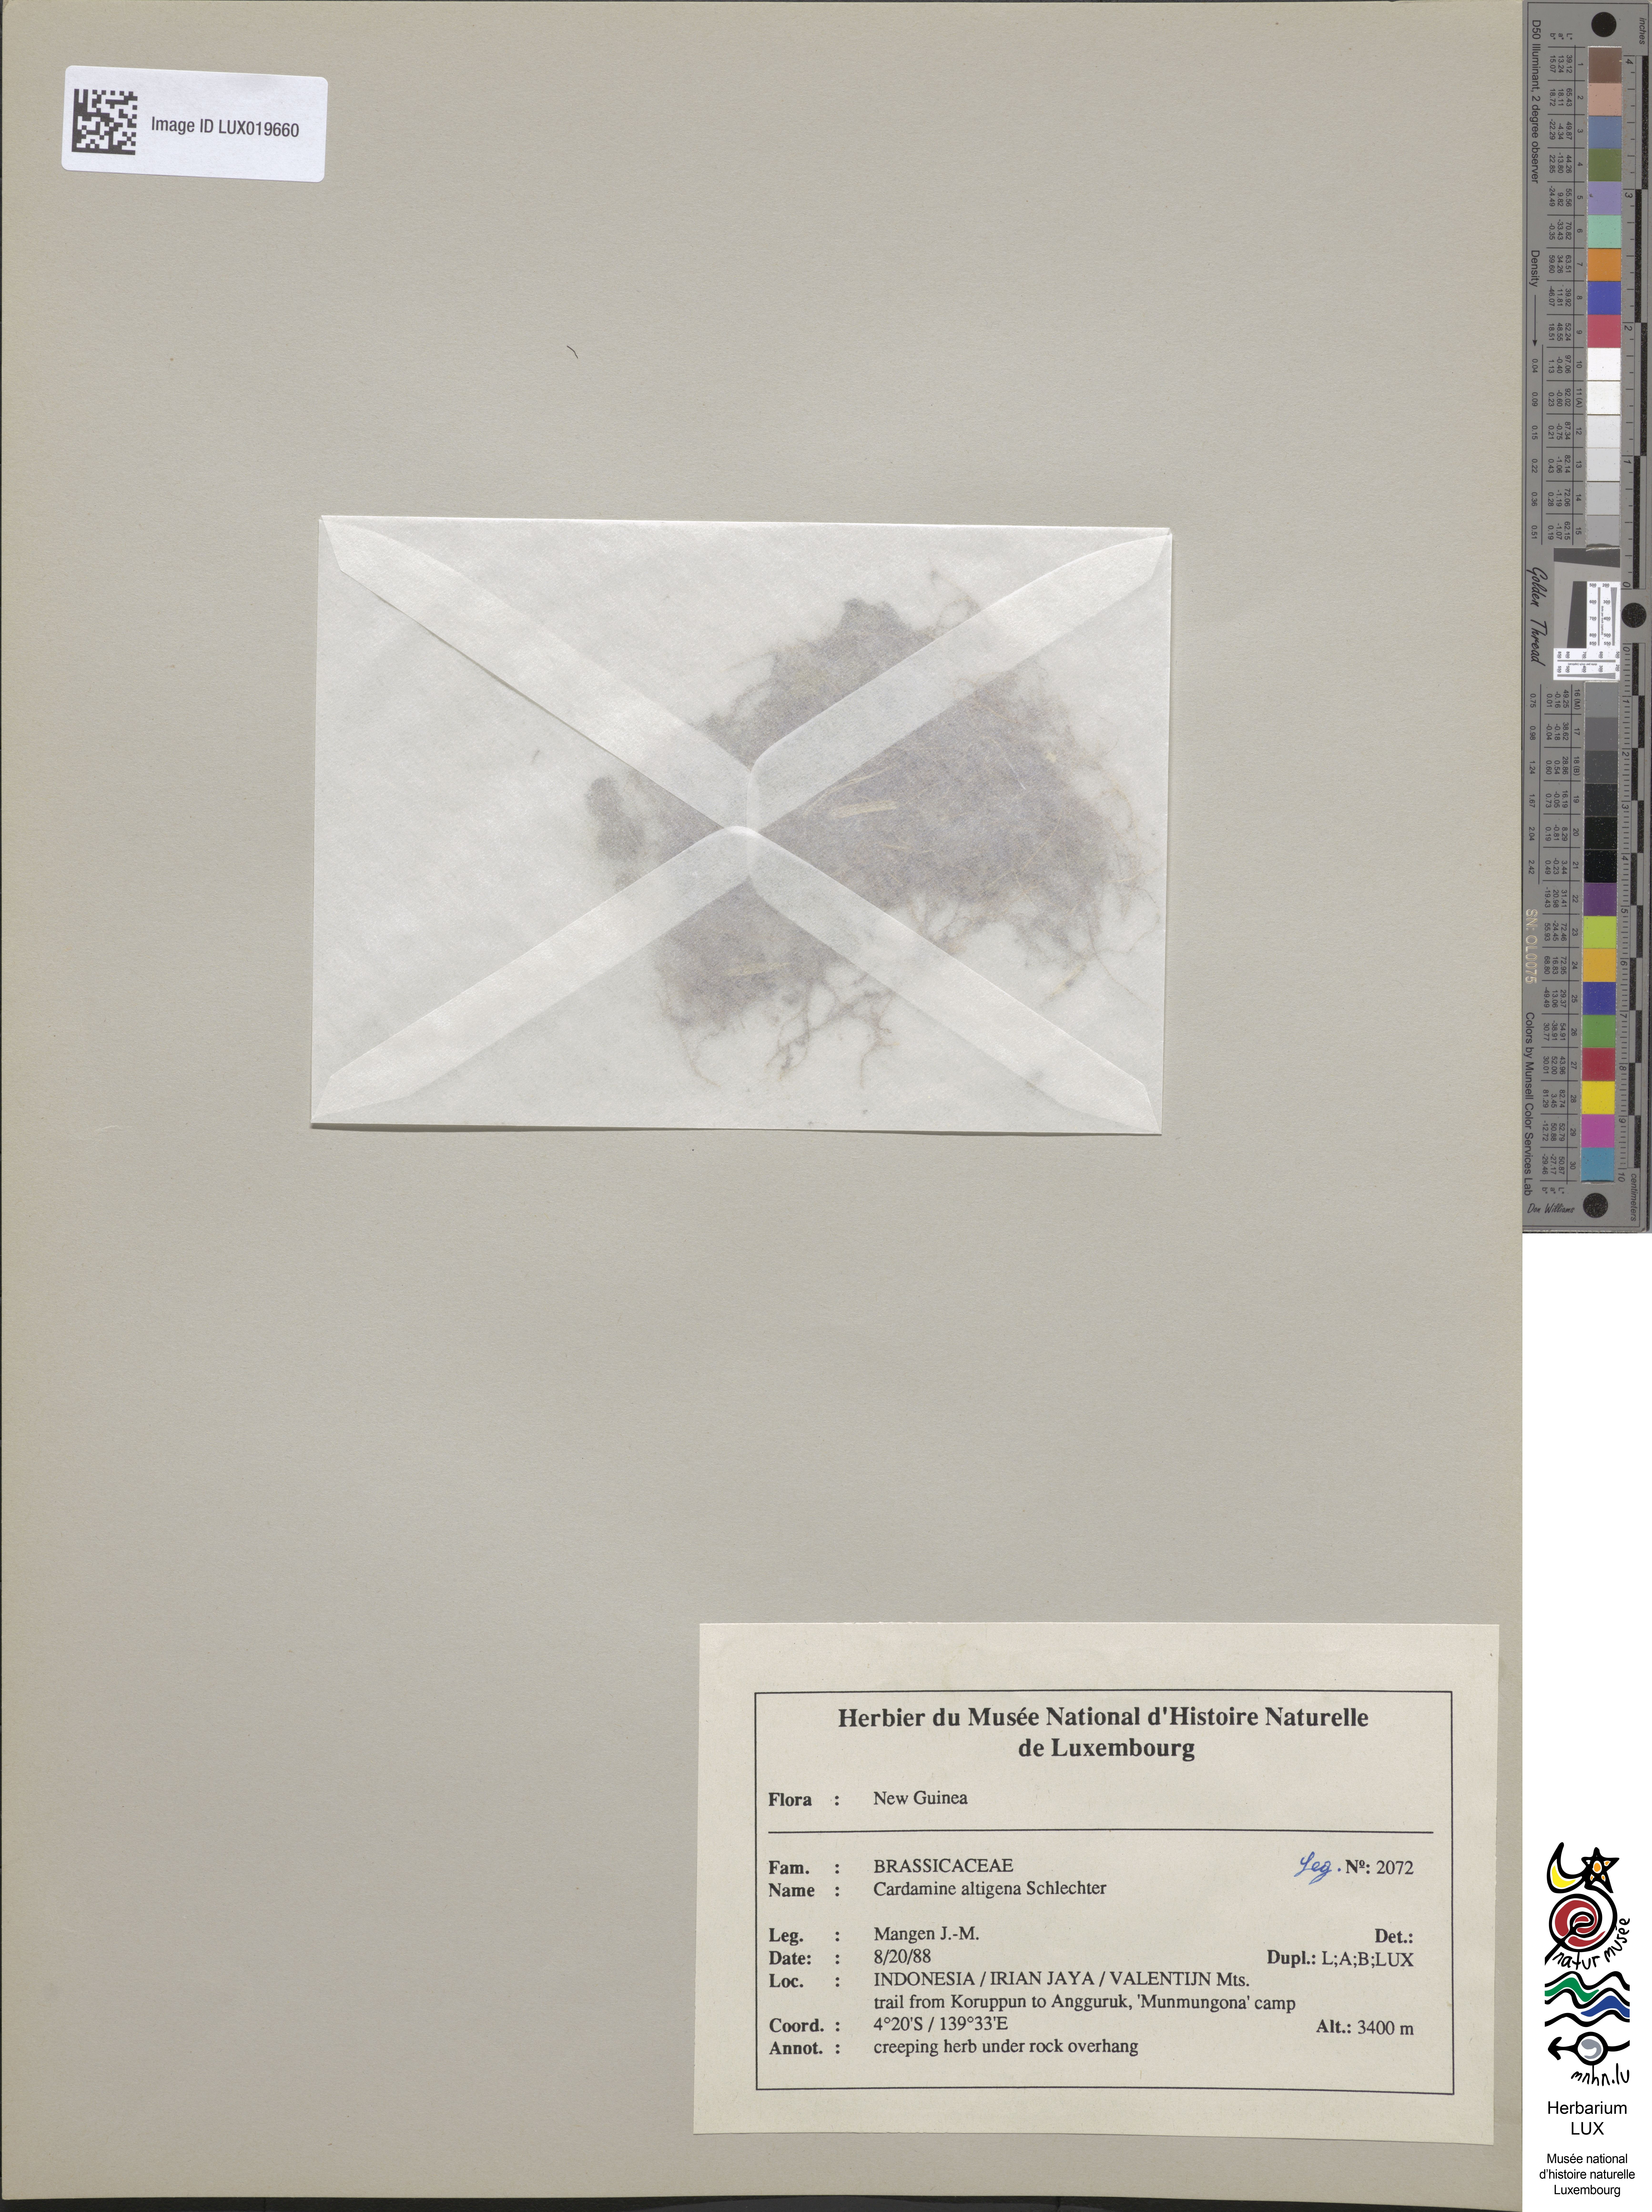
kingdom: Plantae
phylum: Tracheophyta
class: Magnoliopsida
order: Brassicales
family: Brassicaceae
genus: Cardamine
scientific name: Cardamine altigena
